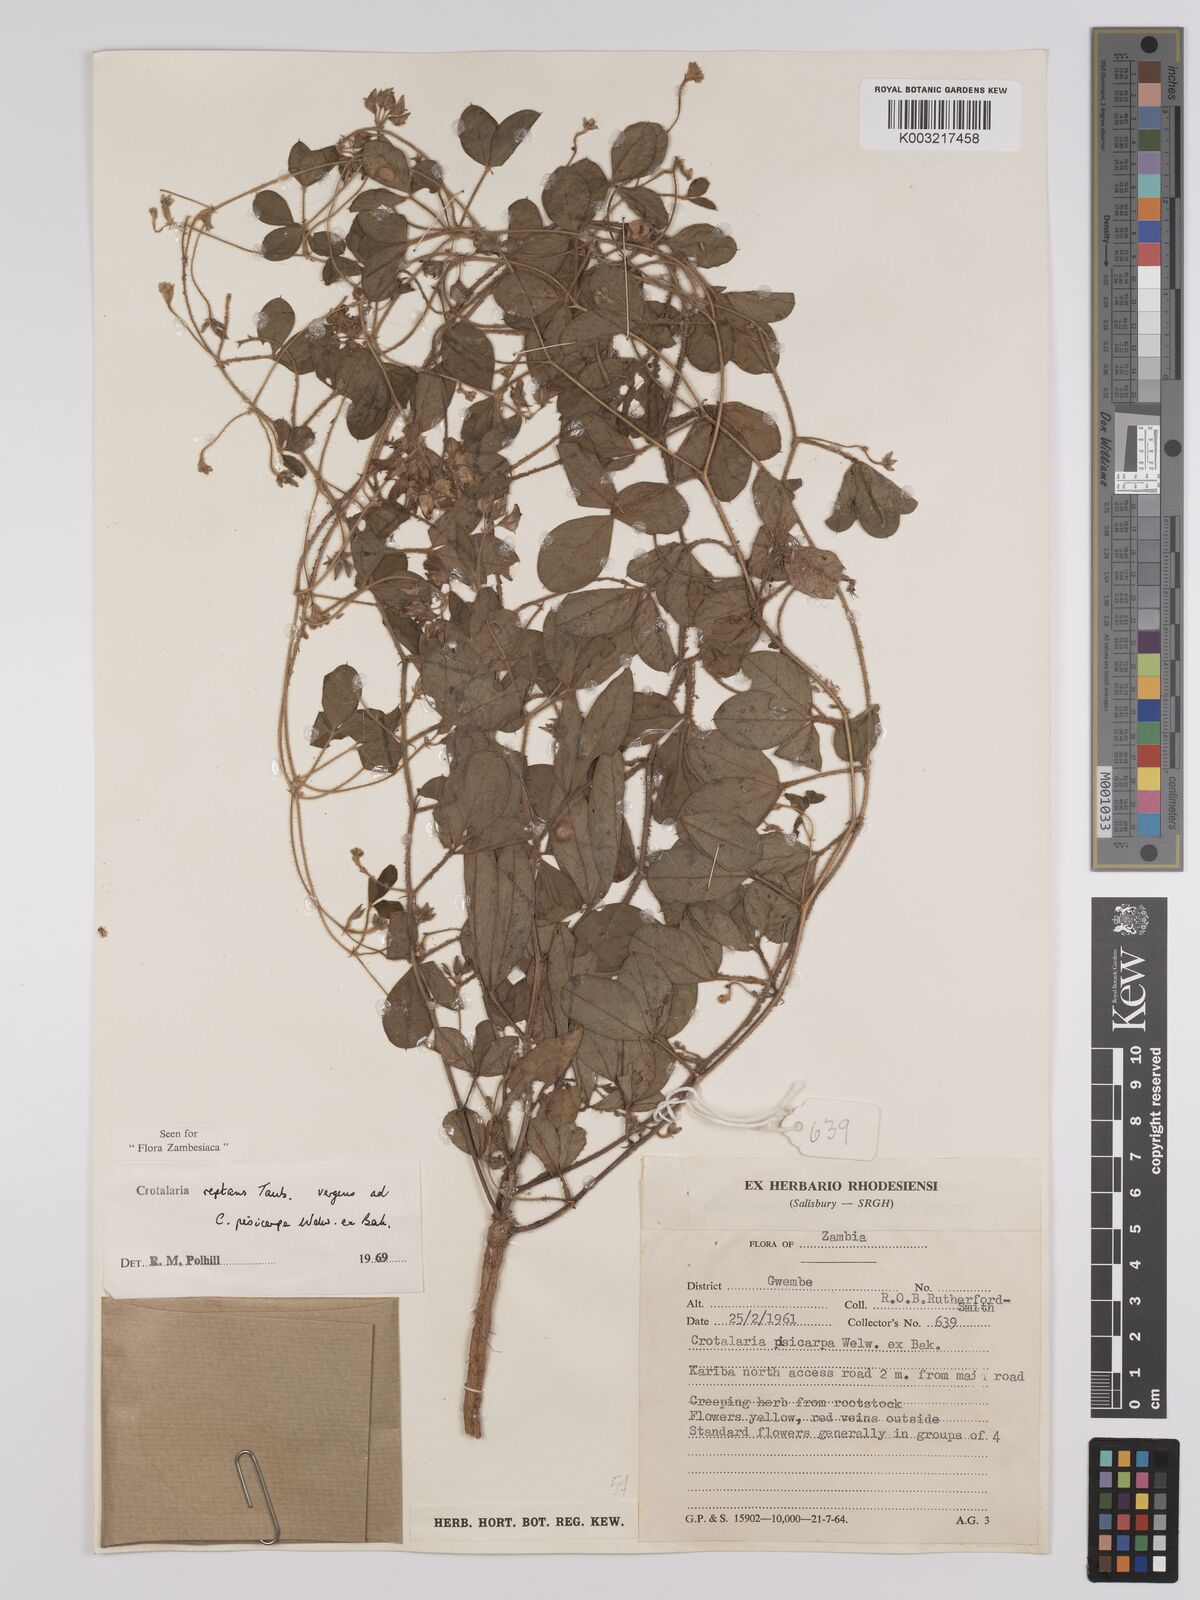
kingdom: Plantae
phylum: Tracheophyta
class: Magnoliopsida
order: Fabales
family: Fabaceae
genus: Crotalaria
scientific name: Crotalaria reptans
